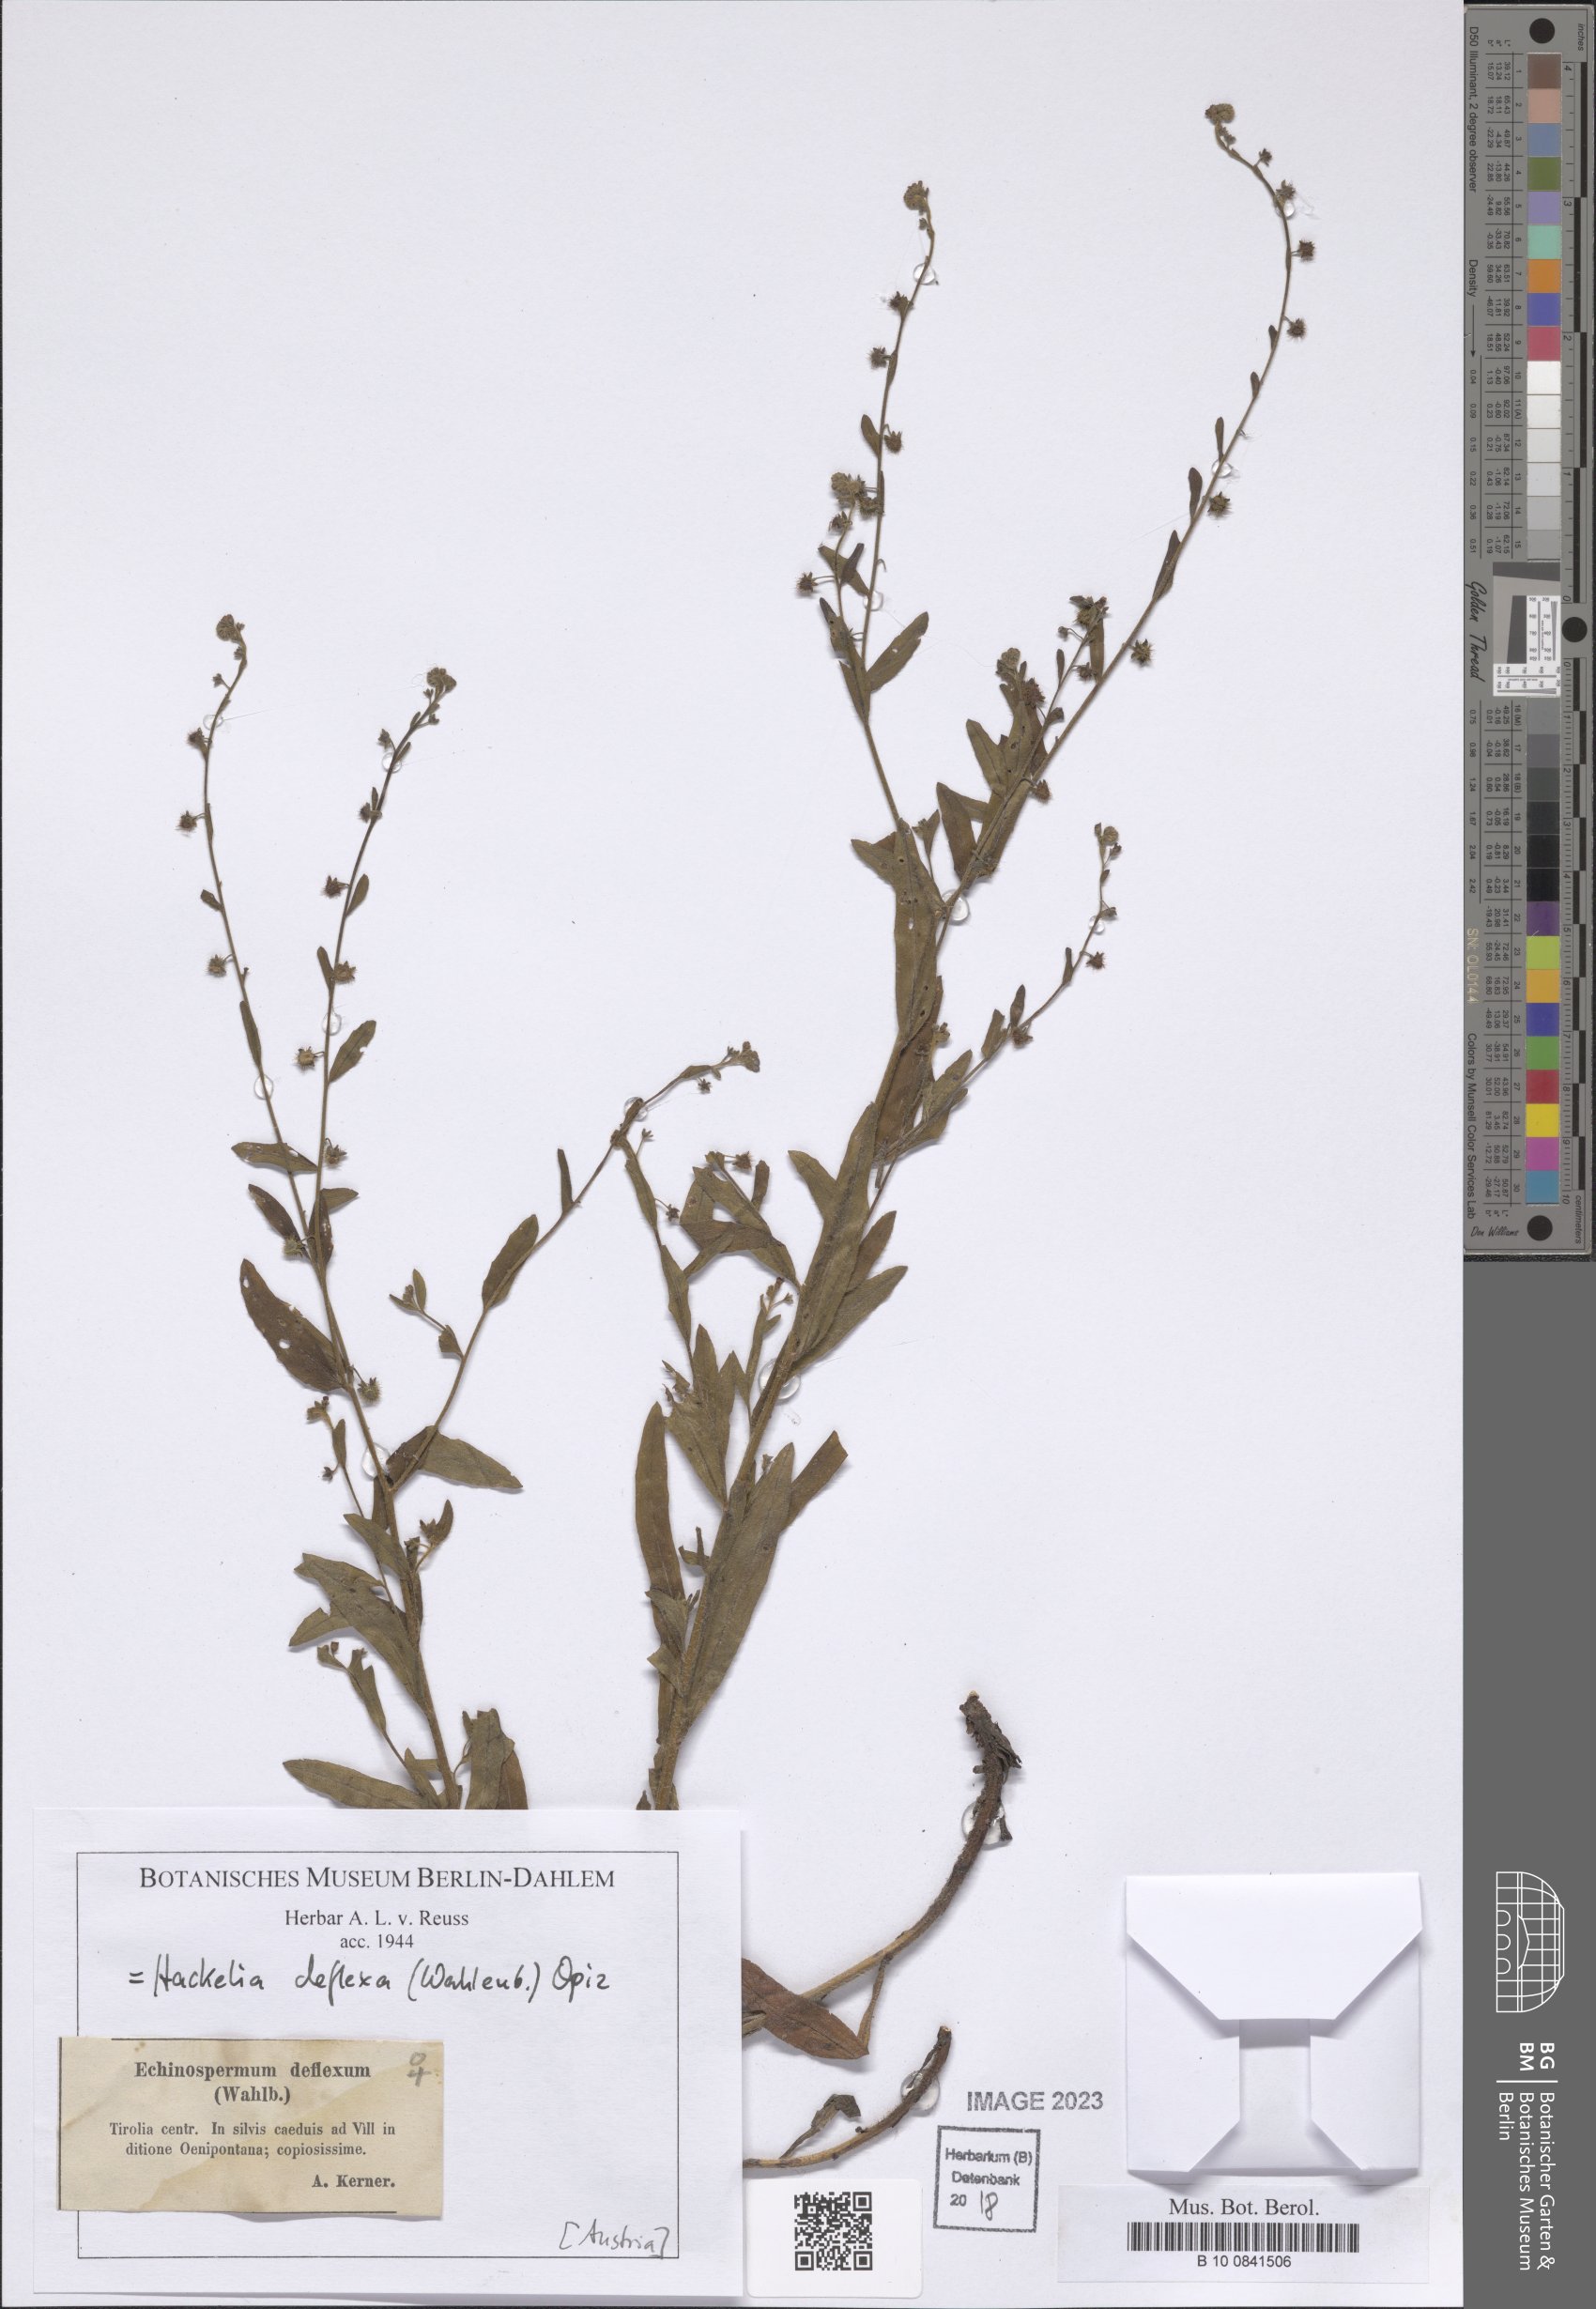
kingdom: Plantae
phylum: Tracheophyta
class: Magnoliopsida
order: Boraginales
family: Boraginaceae
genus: Hackelia
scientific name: Hackelia deflexa
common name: Nodding stickseed
